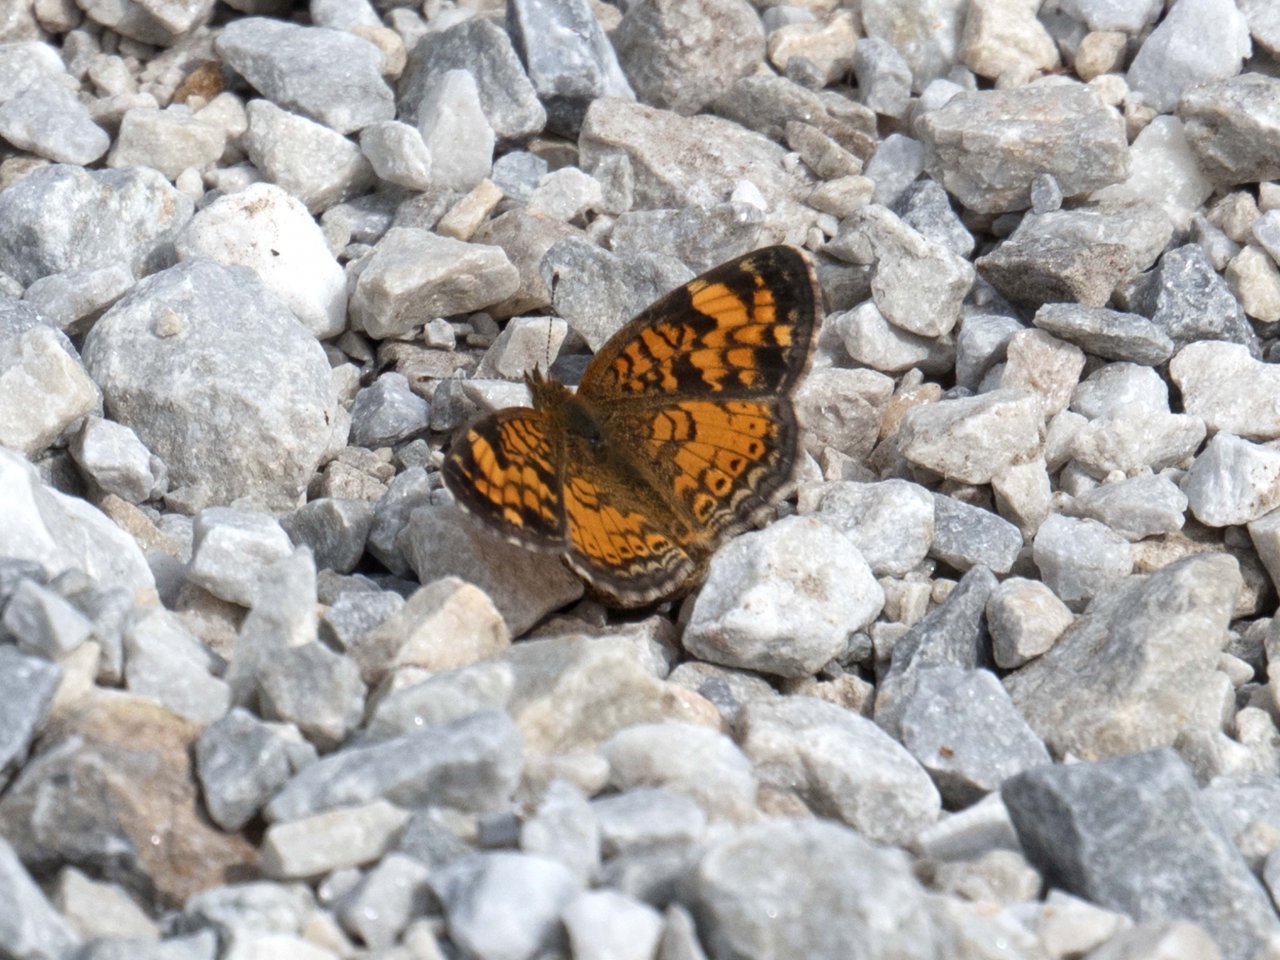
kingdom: Animalia
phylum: Arthropoda
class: Insecta
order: Lepidoptera
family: Nymphalidae
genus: Phyciodes
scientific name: Phyciodes
